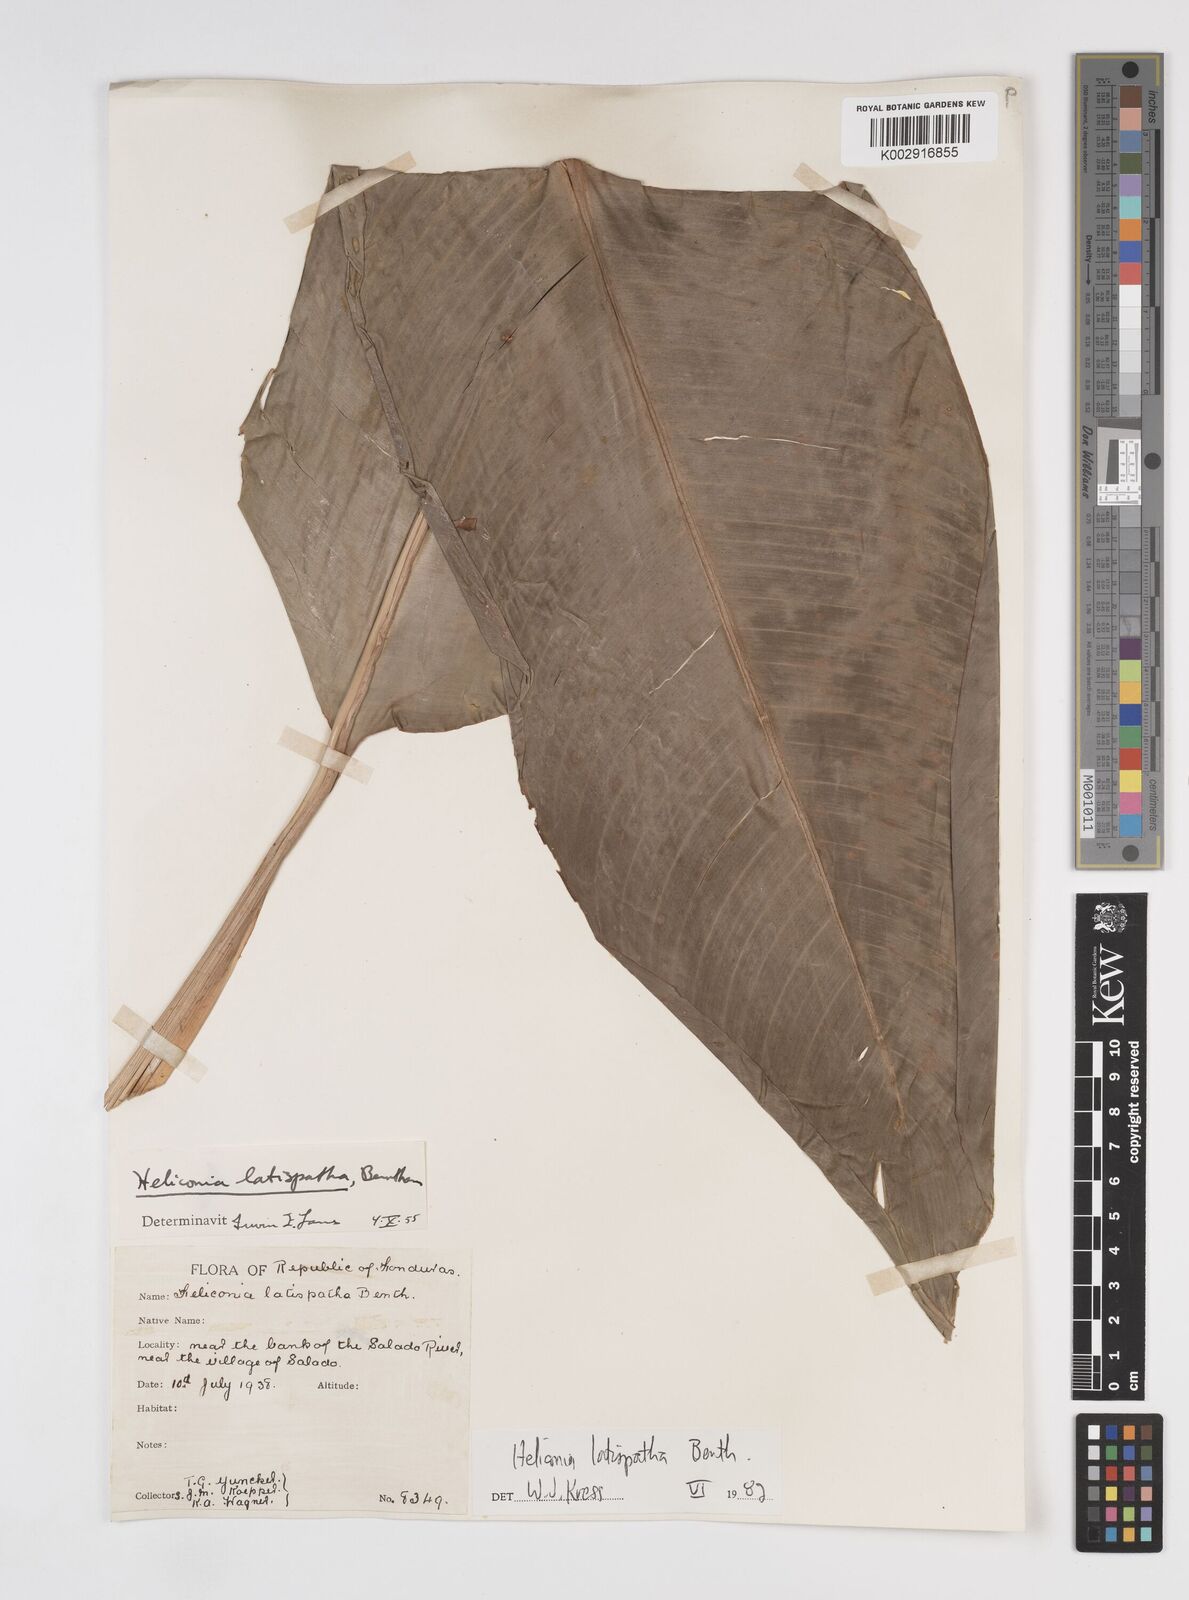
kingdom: Plantae
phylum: Tracheophyta
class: Liliopsida
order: Zingiberales
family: Heliconiaceae
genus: Heliconia
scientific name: Heliconia latispatha
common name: Expanded lobsterclaw
